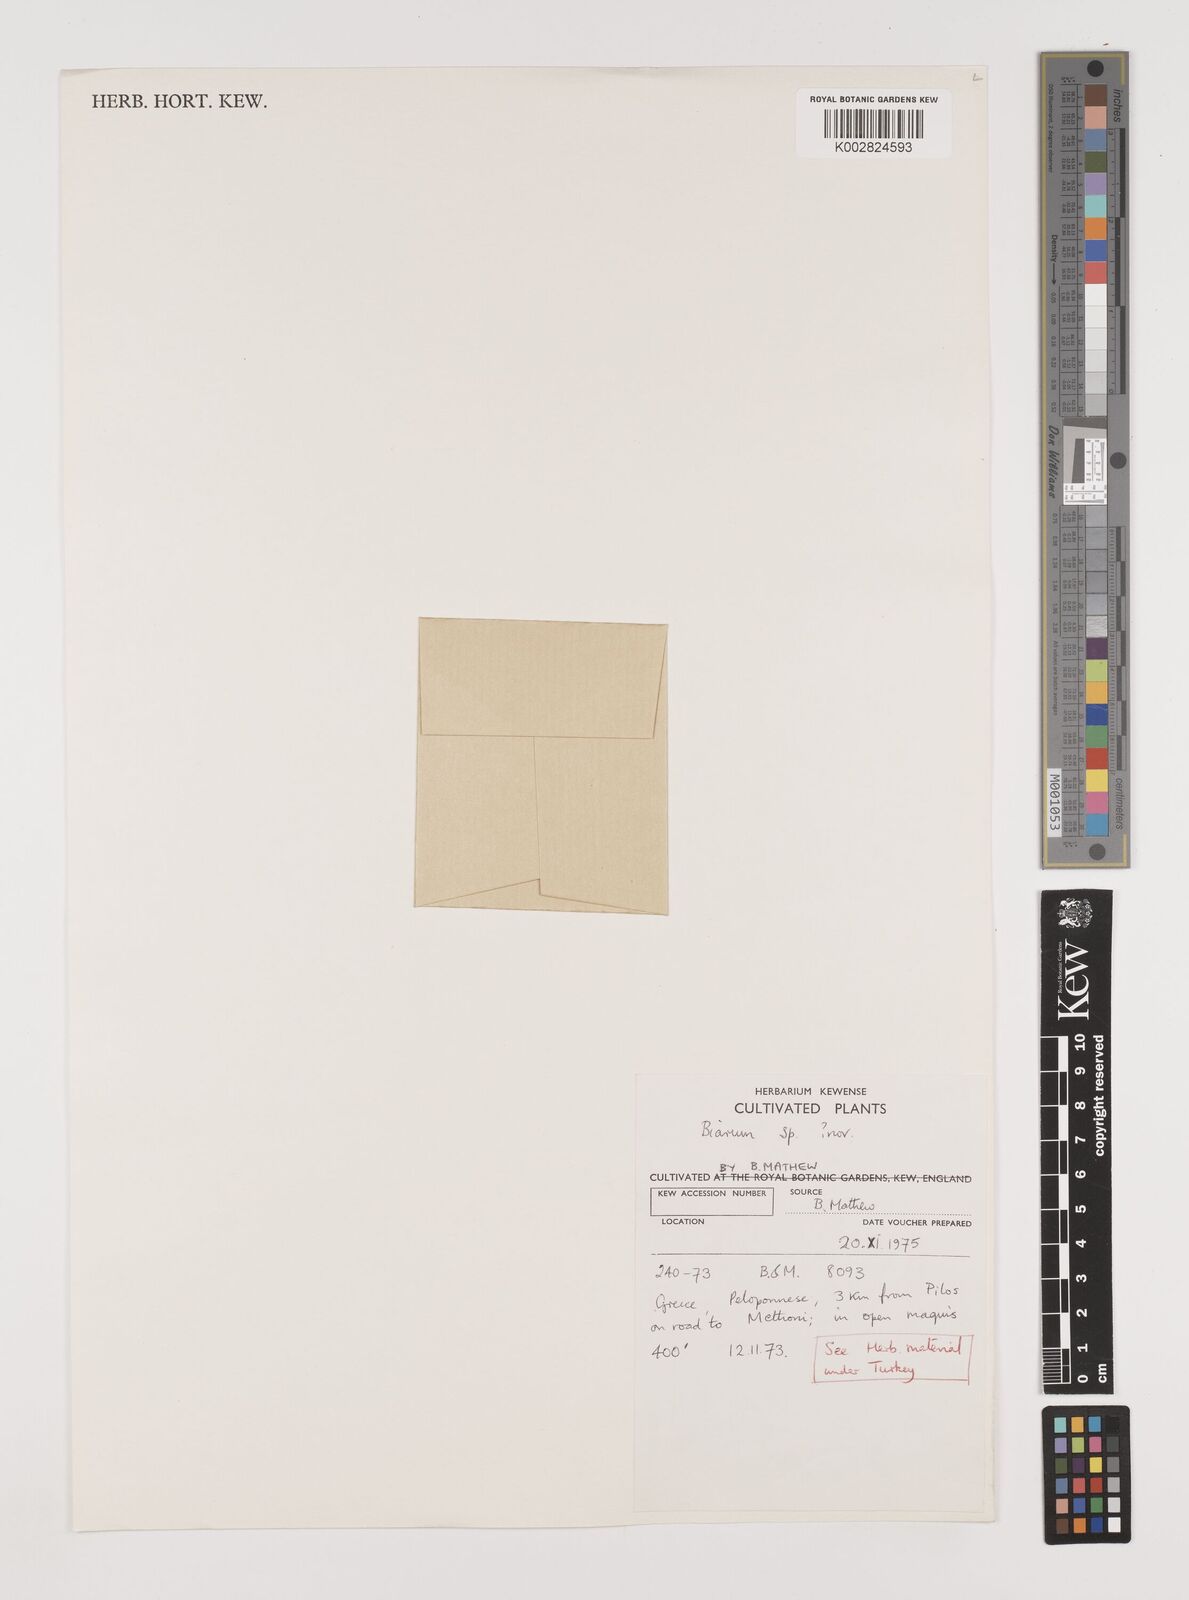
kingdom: Plantae
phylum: Tracheophyta
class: Liliopsida
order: Alismatales
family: Araceae
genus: Biarum
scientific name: Biarum
